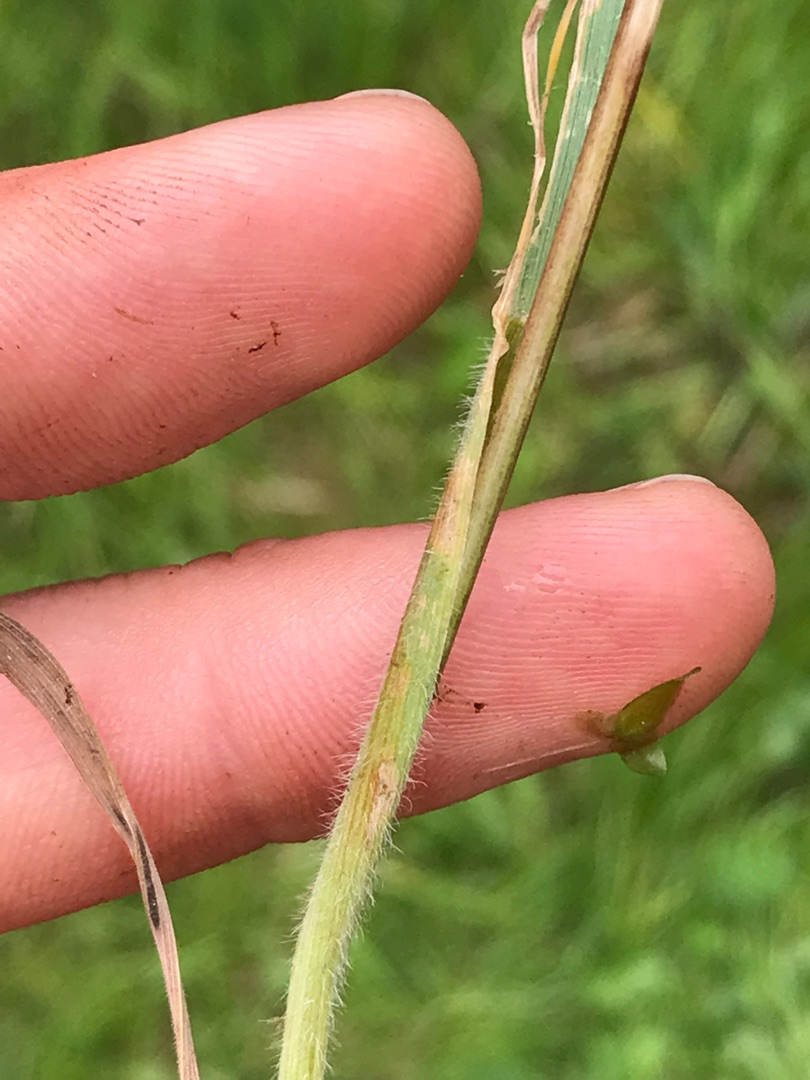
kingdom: Plantae
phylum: Tracheophyta
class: Liliopsida
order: Poales
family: Poaceae
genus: Elymus
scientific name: Elymus repens
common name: Almindelig kvik
